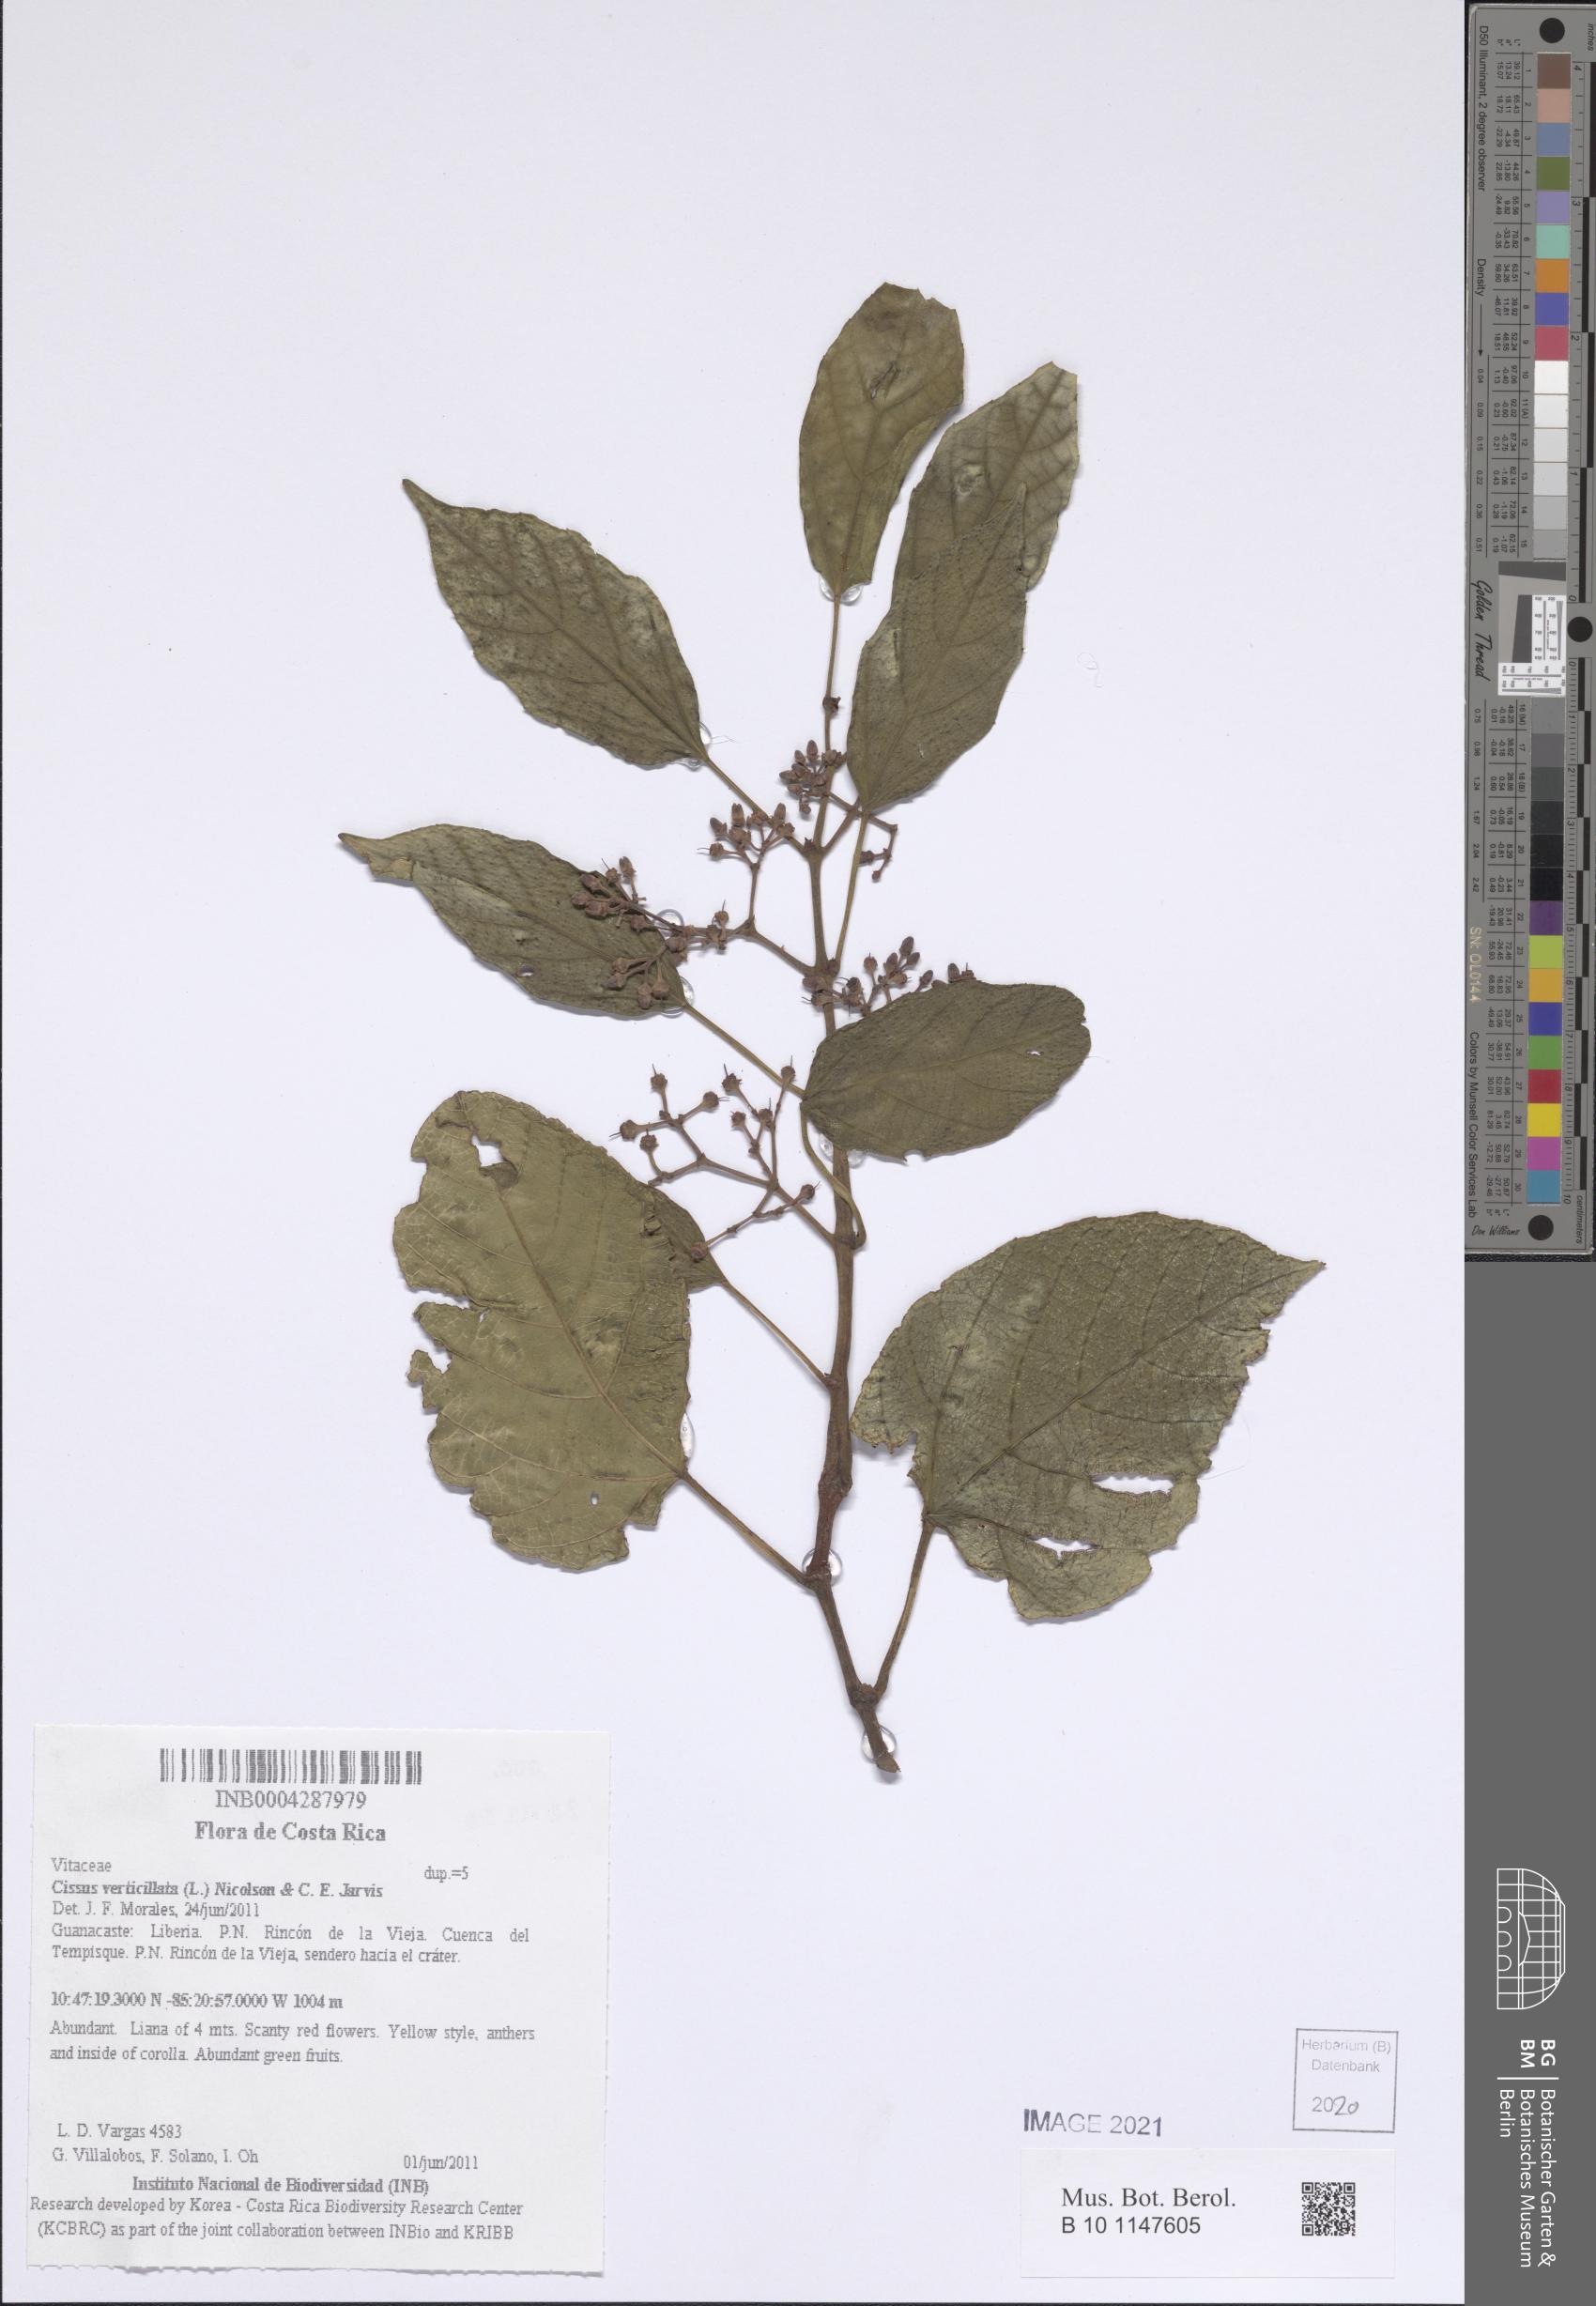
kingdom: Plantae
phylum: Tracheophyta
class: Magnoliopsida
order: Vitales
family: Vitaceae
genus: Cissus
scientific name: Cissus verticillata
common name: Princess vine
